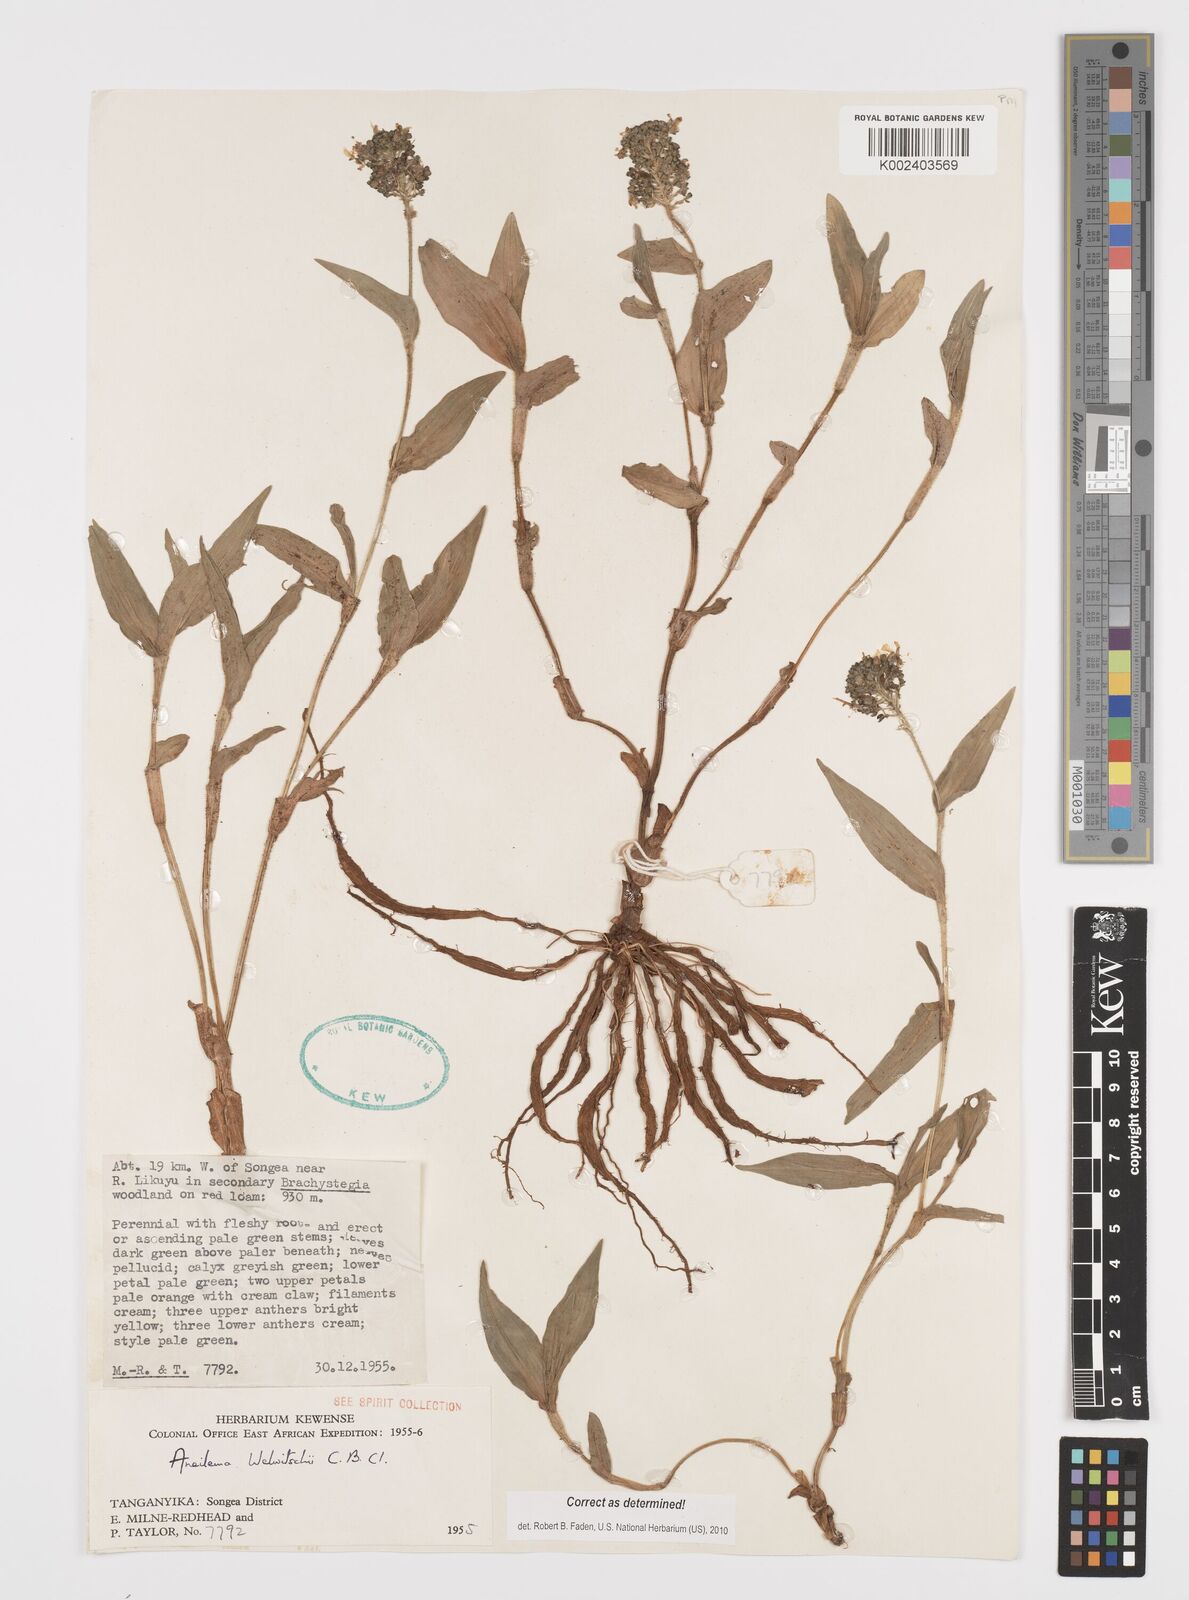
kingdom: Plantae
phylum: Tracheophyta
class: Liliopsida
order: Commelinales
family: Commelinaceae
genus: Aneilema
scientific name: Aneilema welwitschii
